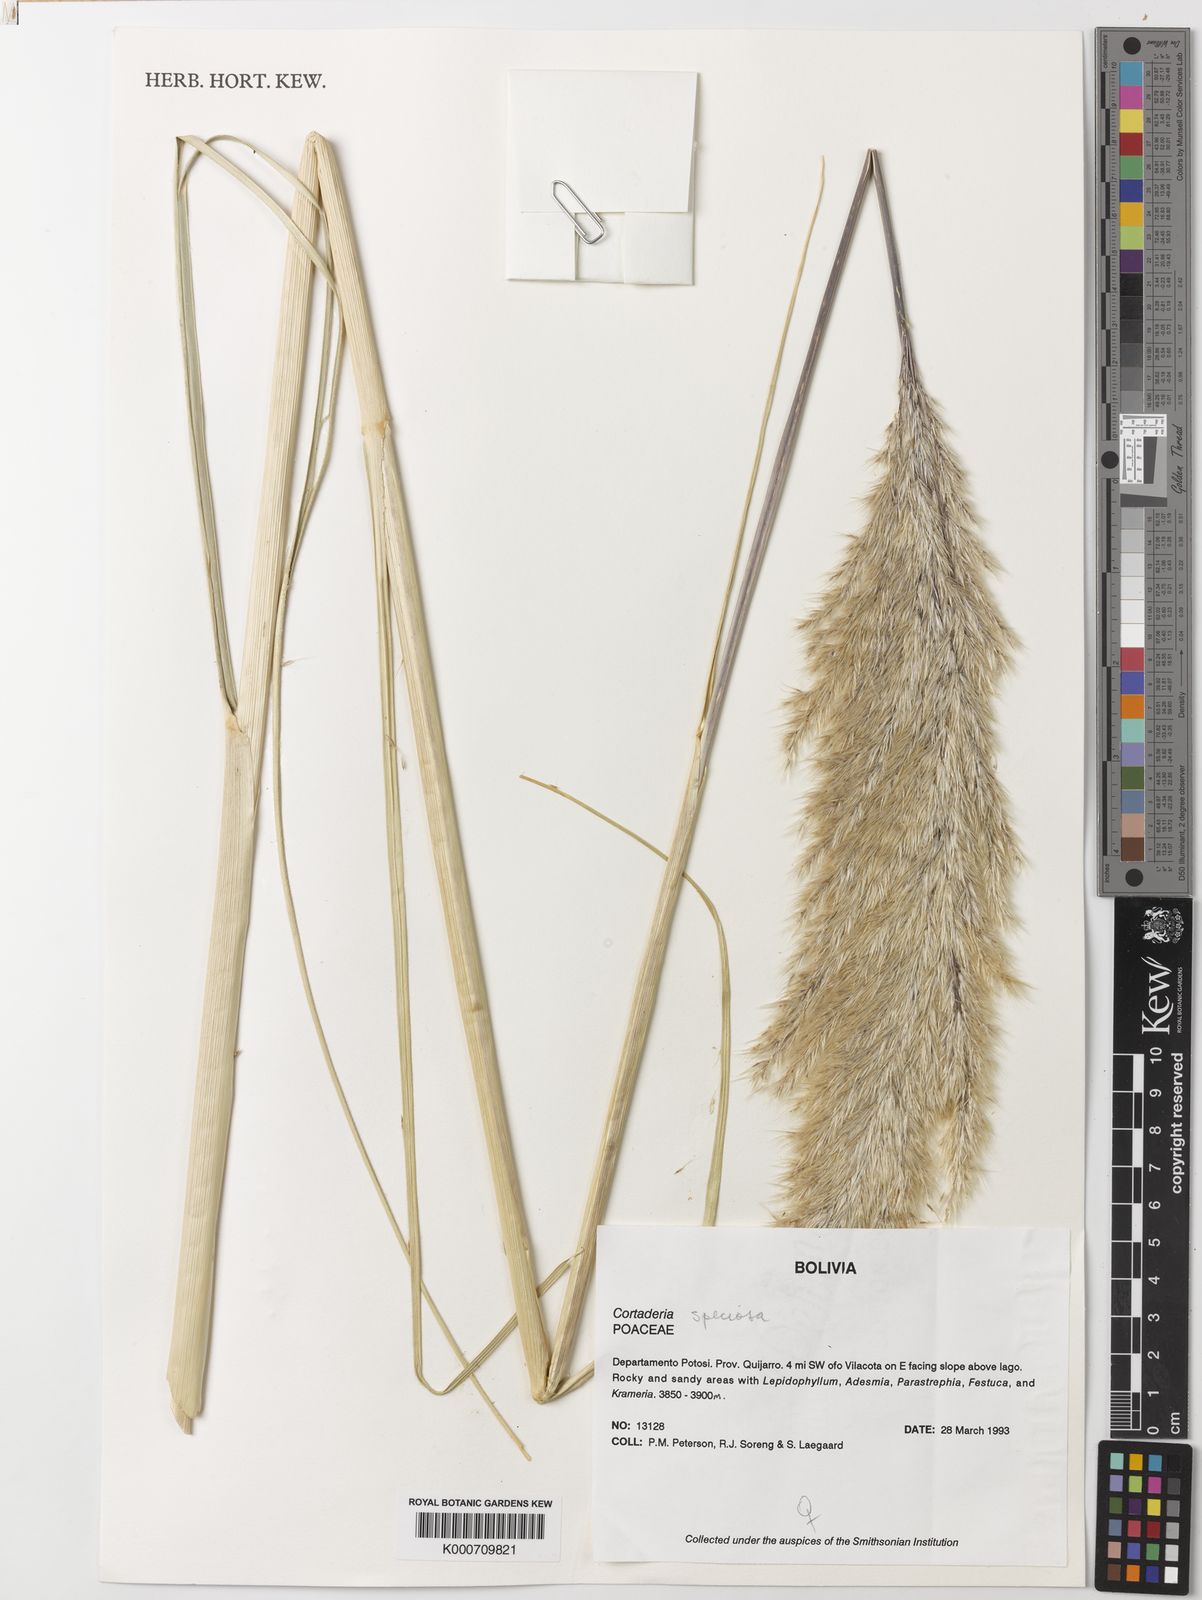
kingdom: Plantae
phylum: Tracheophyta
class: Liliopsida
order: Poales
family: Poaceae
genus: Cortaderia
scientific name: Cortaderia speciosa
